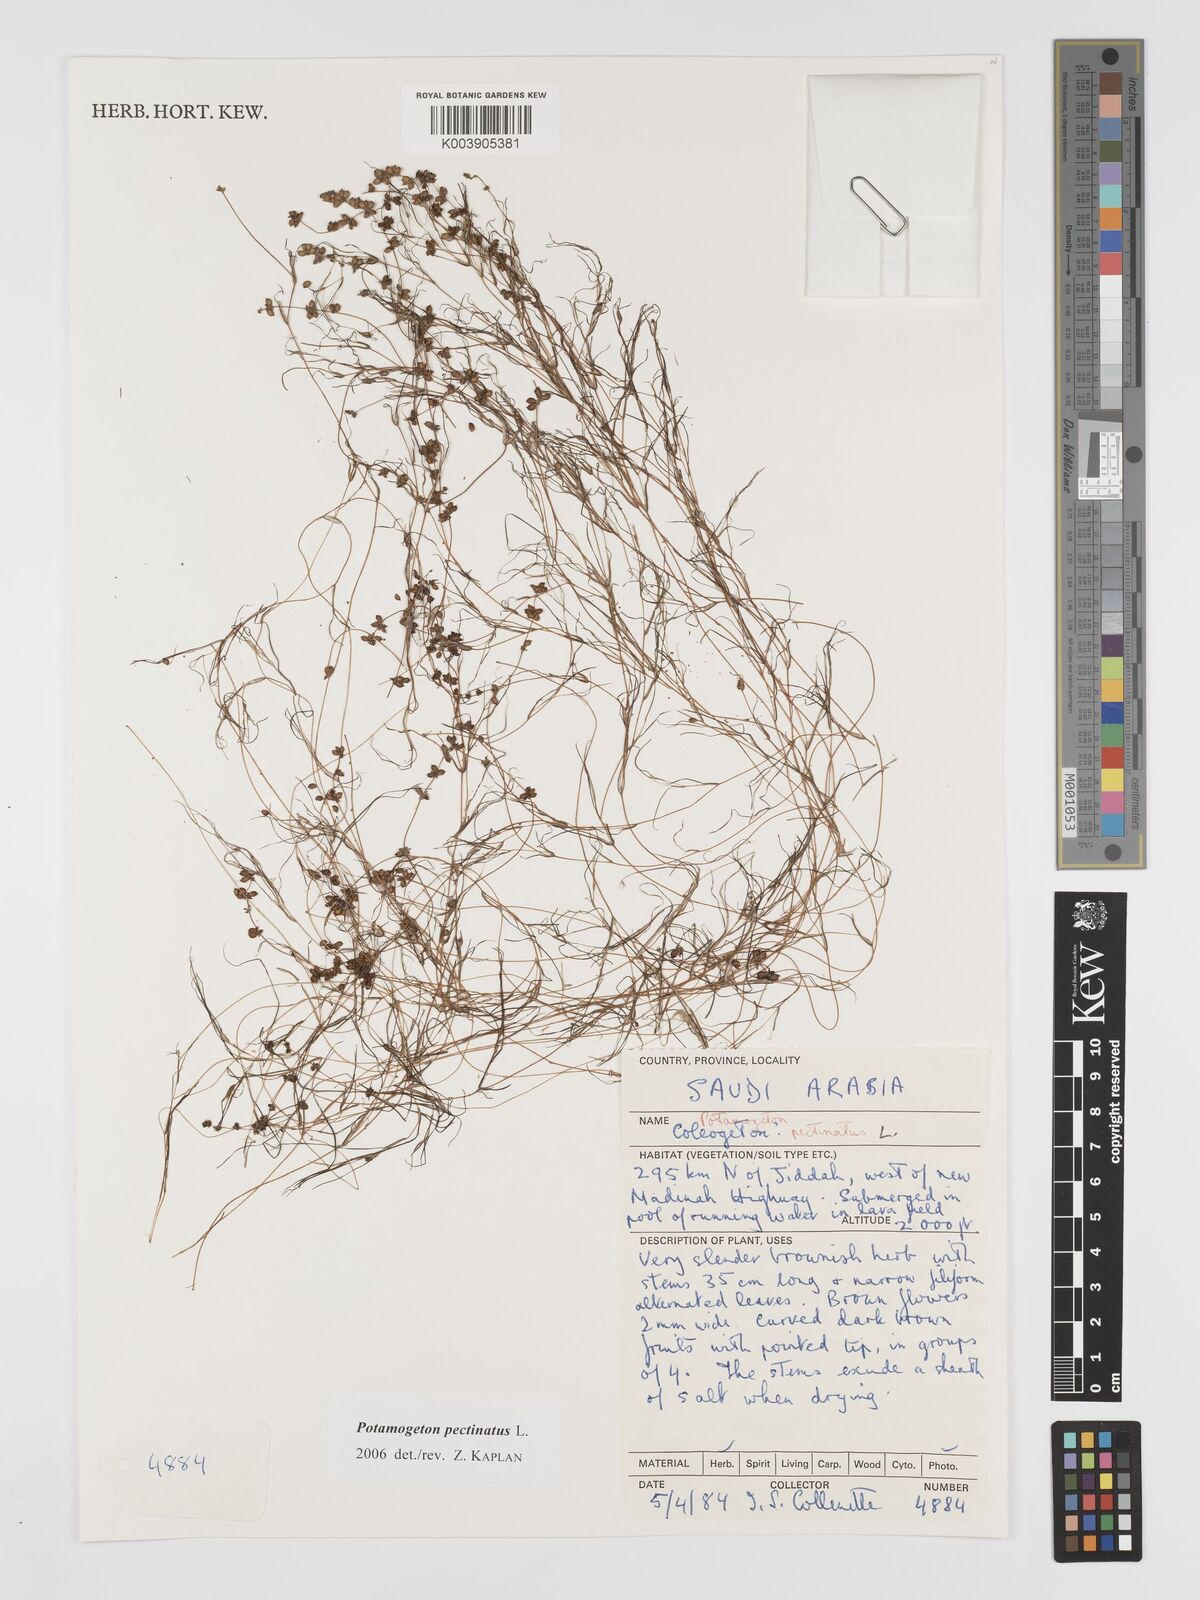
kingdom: Plantae
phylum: Tracheophyta
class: Liliopsida
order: Alismatales
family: Potamogetonaceae
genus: Stuckenia
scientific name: Stuckenia pectinata
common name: Sago pondweed
